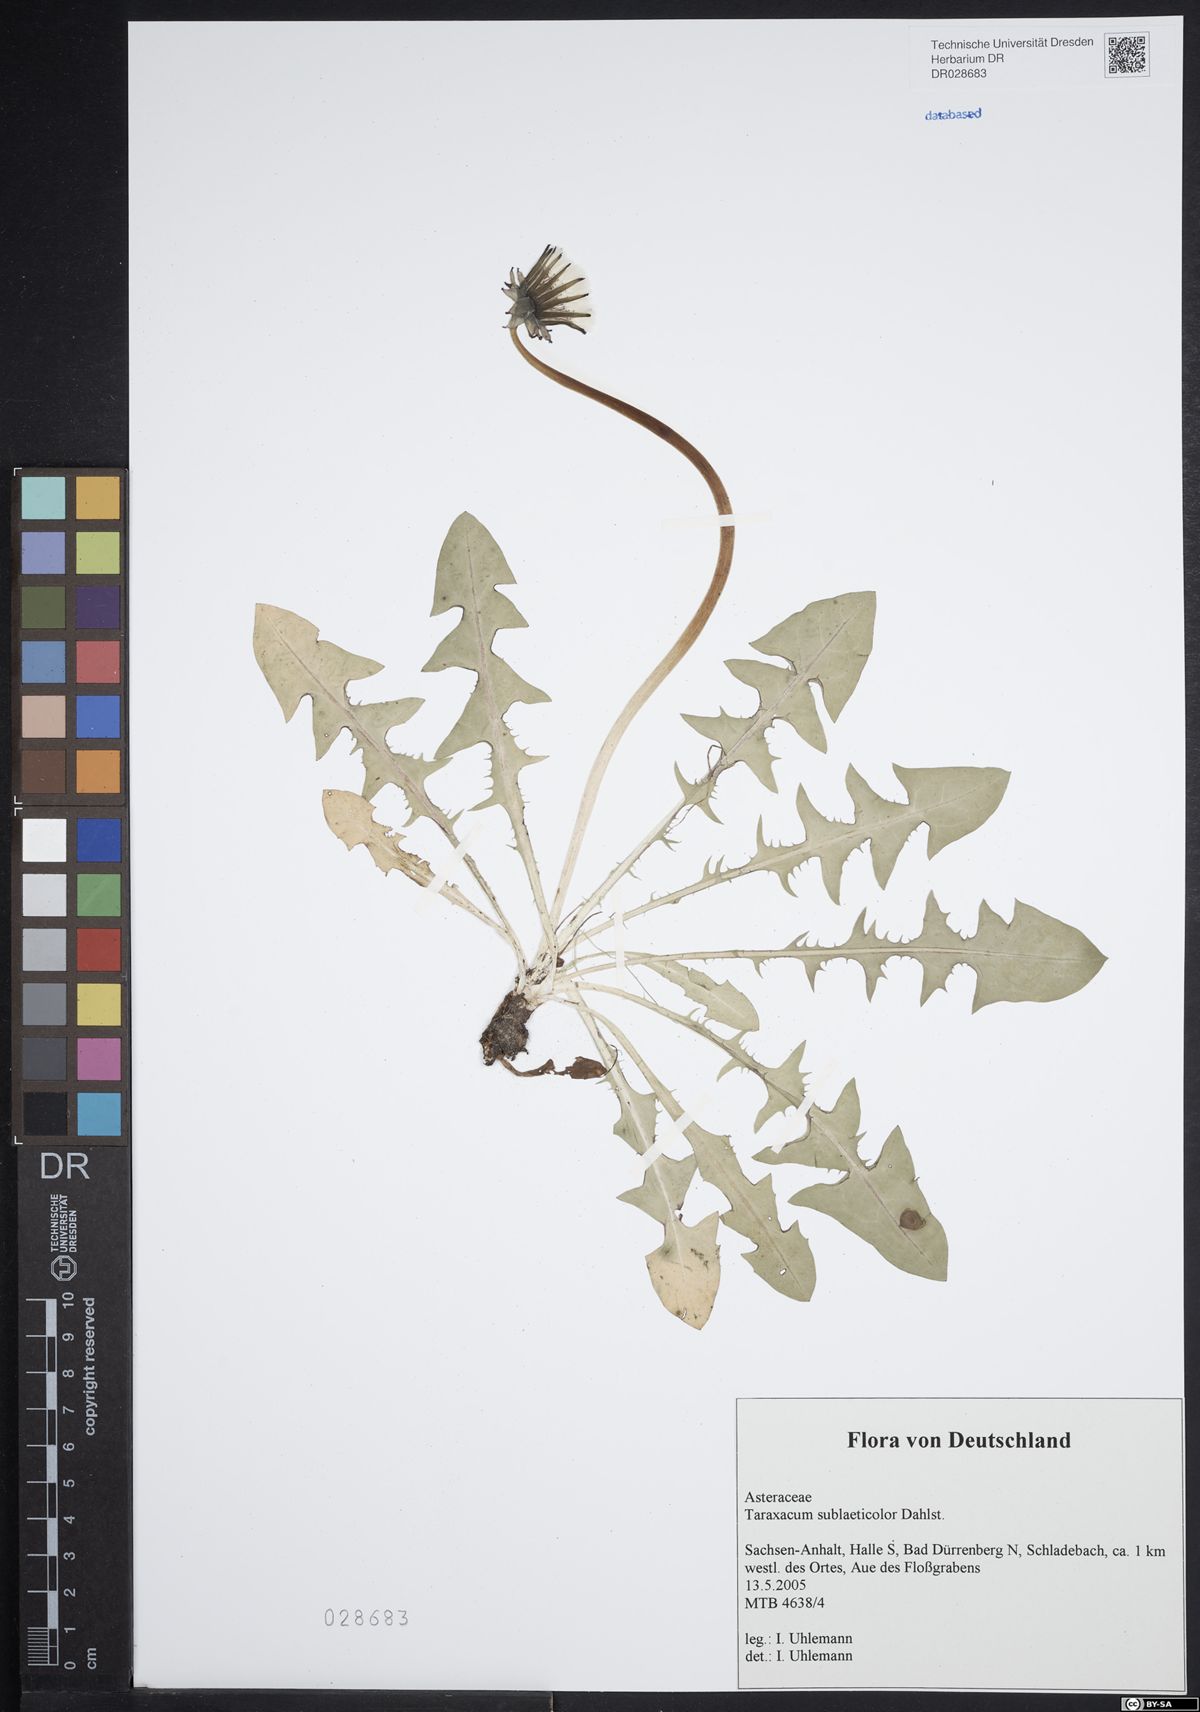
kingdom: Plantae
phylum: Tracheophyta
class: Magnoliopsida
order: Asterales
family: Asteraceae
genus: Taraxacum
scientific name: Taraxacum sublaeticolor
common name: Small-headed dandelion
